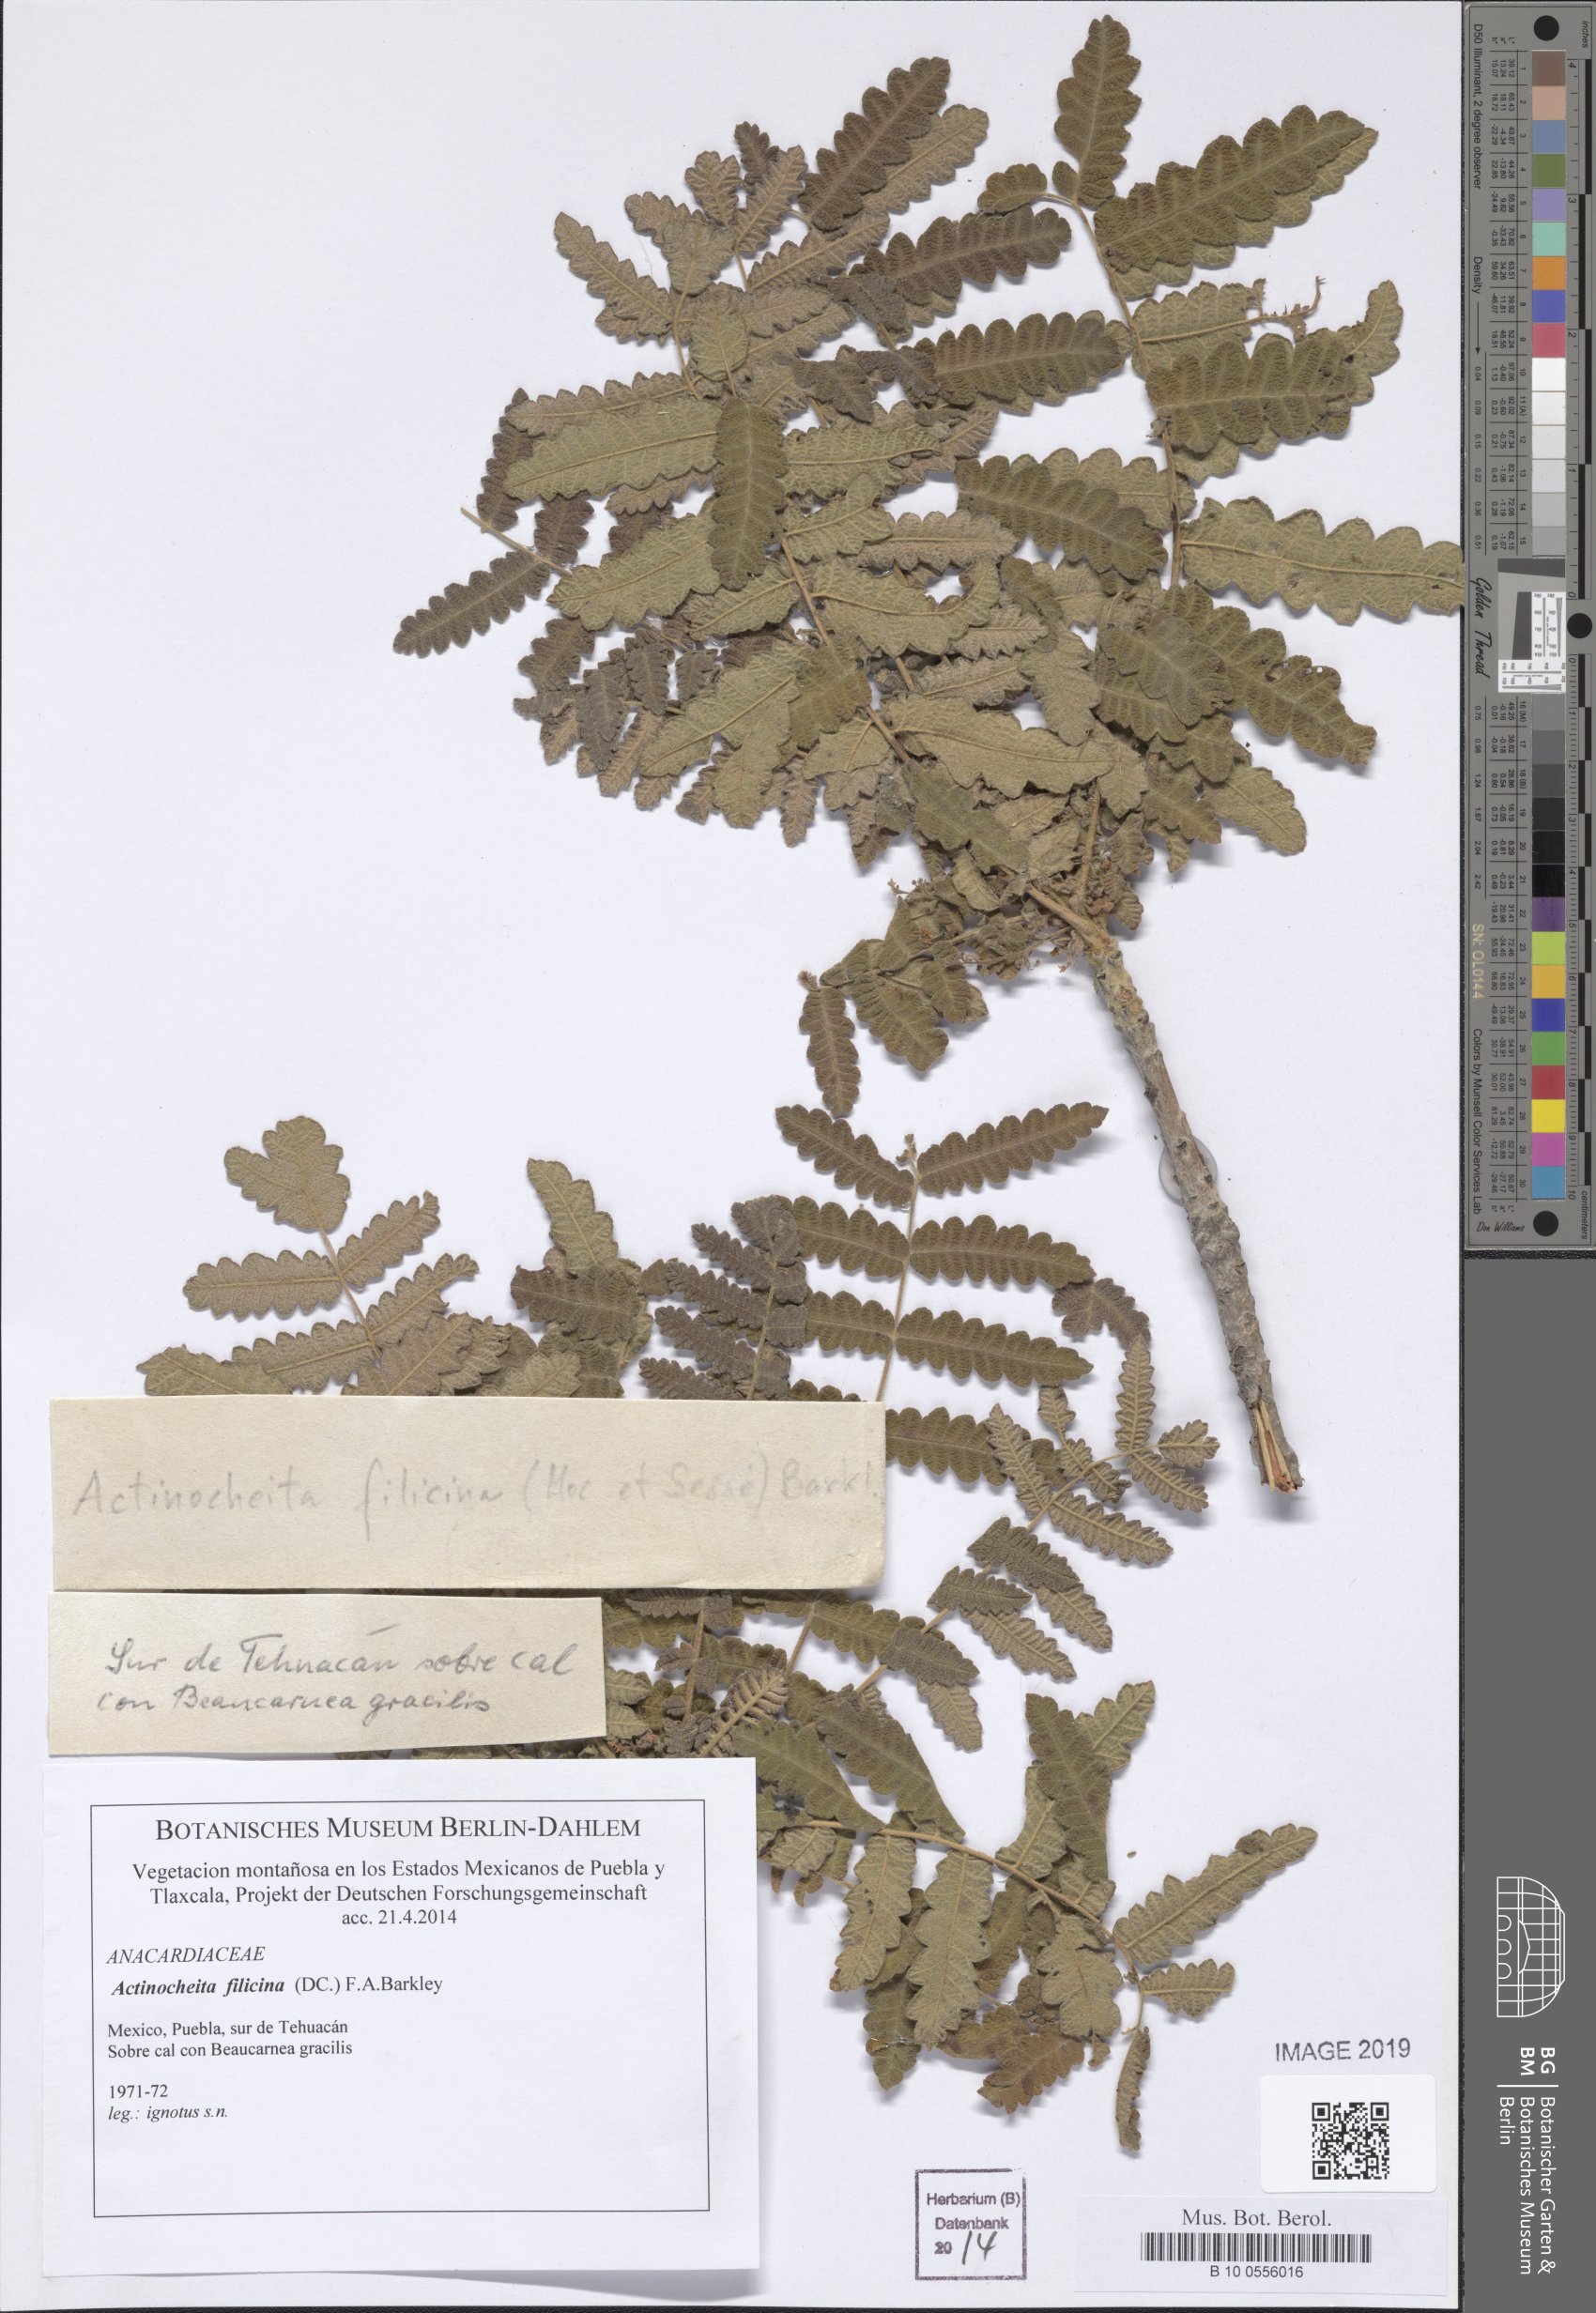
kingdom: Plantae
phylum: Tracheophyta
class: Magnoliopsida
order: Sapindales
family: Anacardiaceae
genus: Actinocheita
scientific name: Actinocheita filicina
